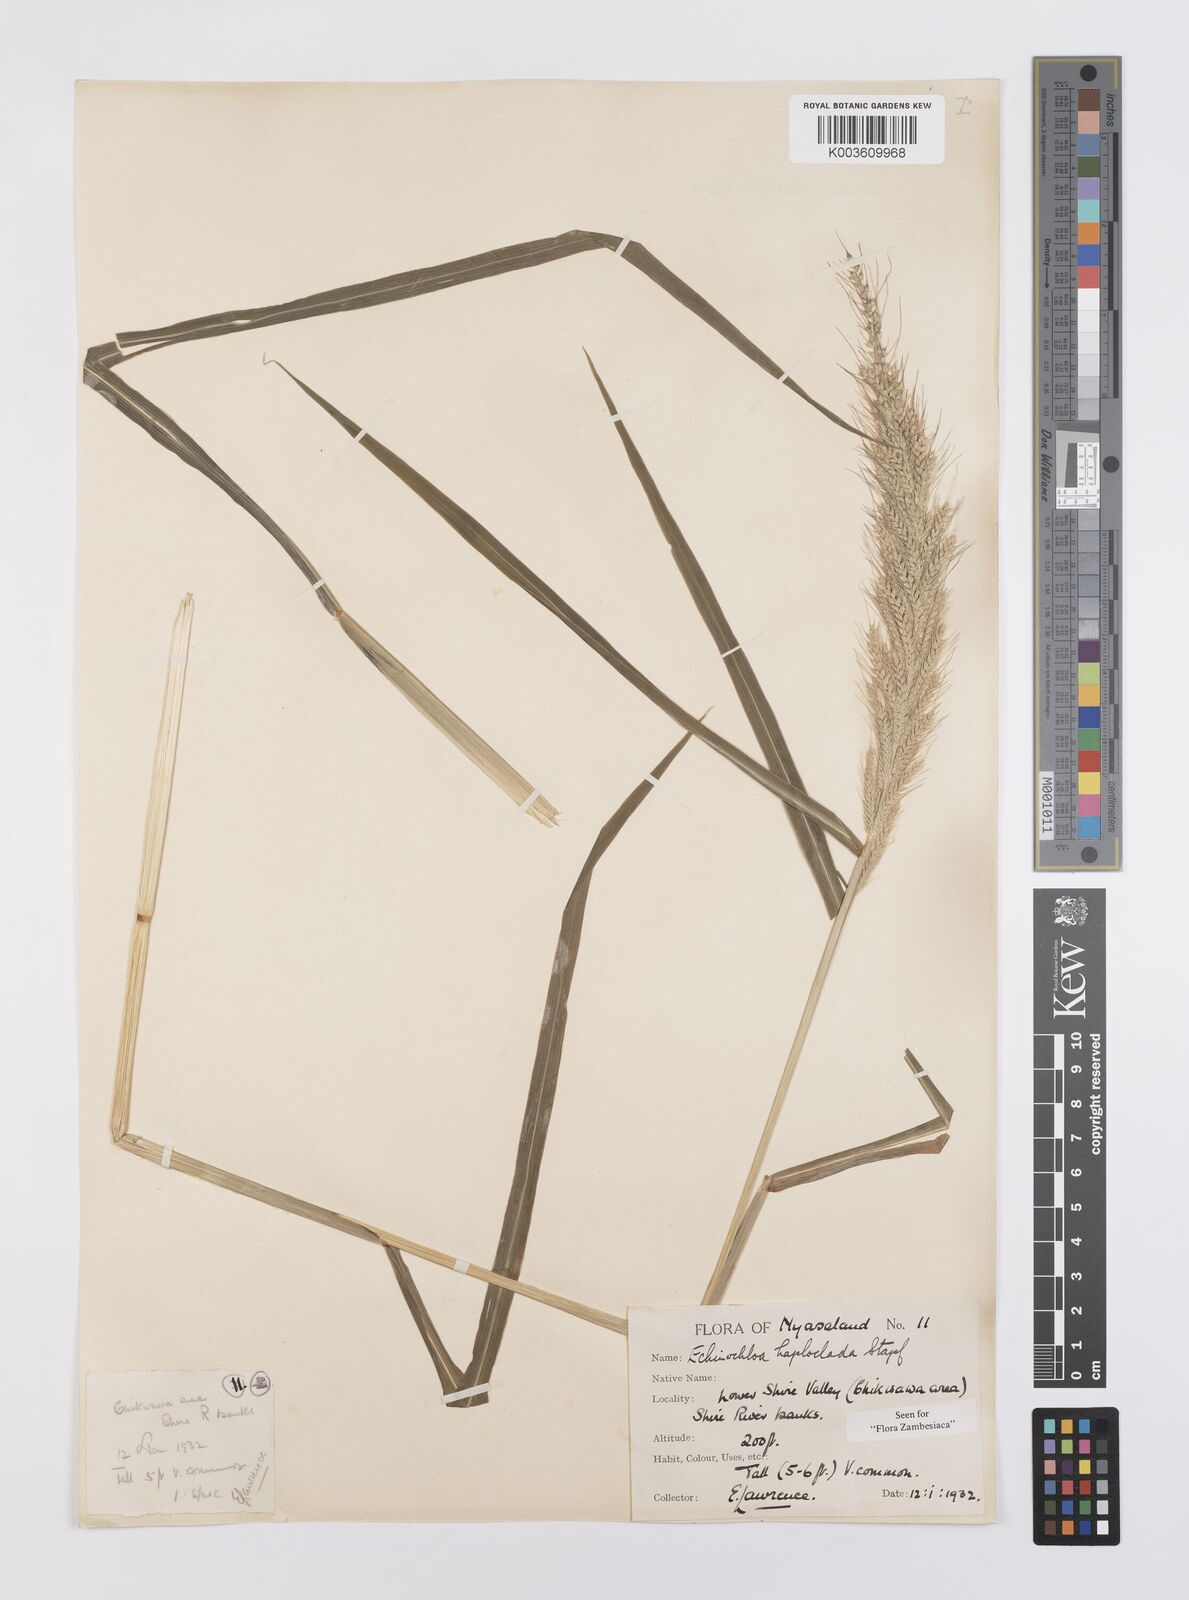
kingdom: Plantae
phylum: Tracheophyta
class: Liliopsida
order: Poales
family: Poaceae
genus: Echinochloa
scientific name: Echinochloa haploclada
